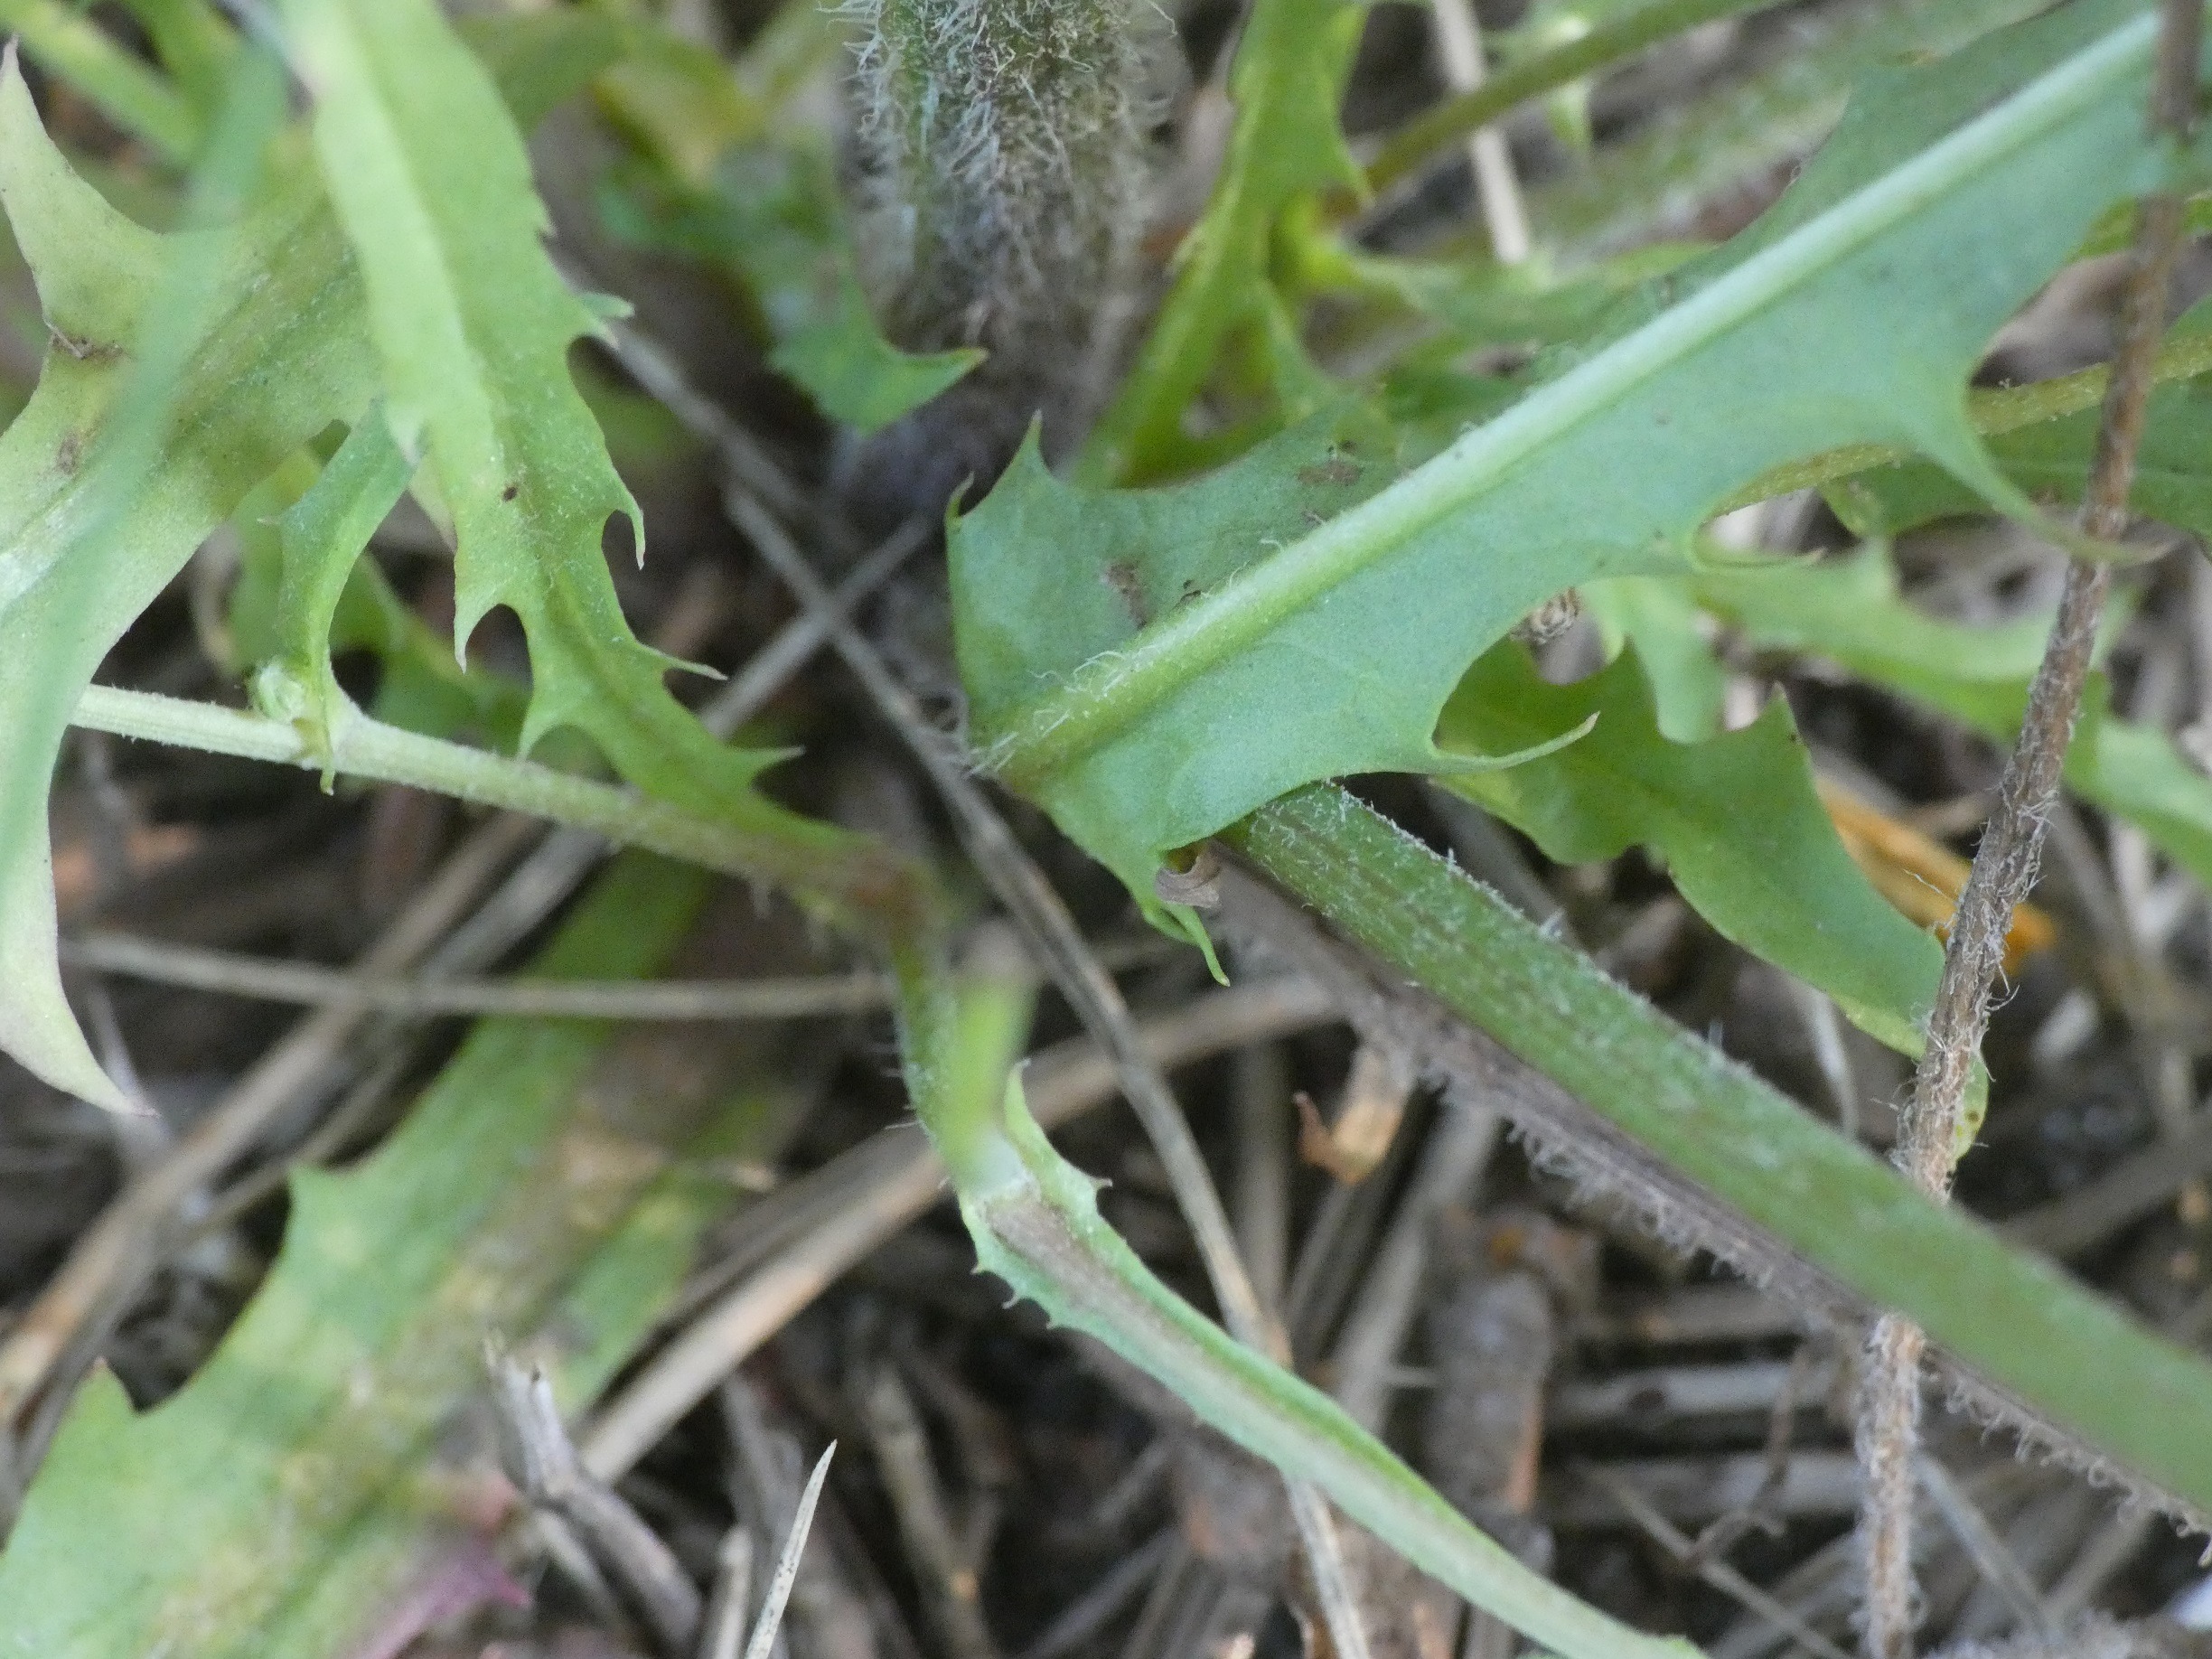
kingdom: Plantae
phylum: Tracheophyta
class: Magnoliopsida
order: Asterales
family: Asteraceae
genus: Scorzoneroides
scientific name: Scorzoneroides autumnalis
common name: Høst-borst
